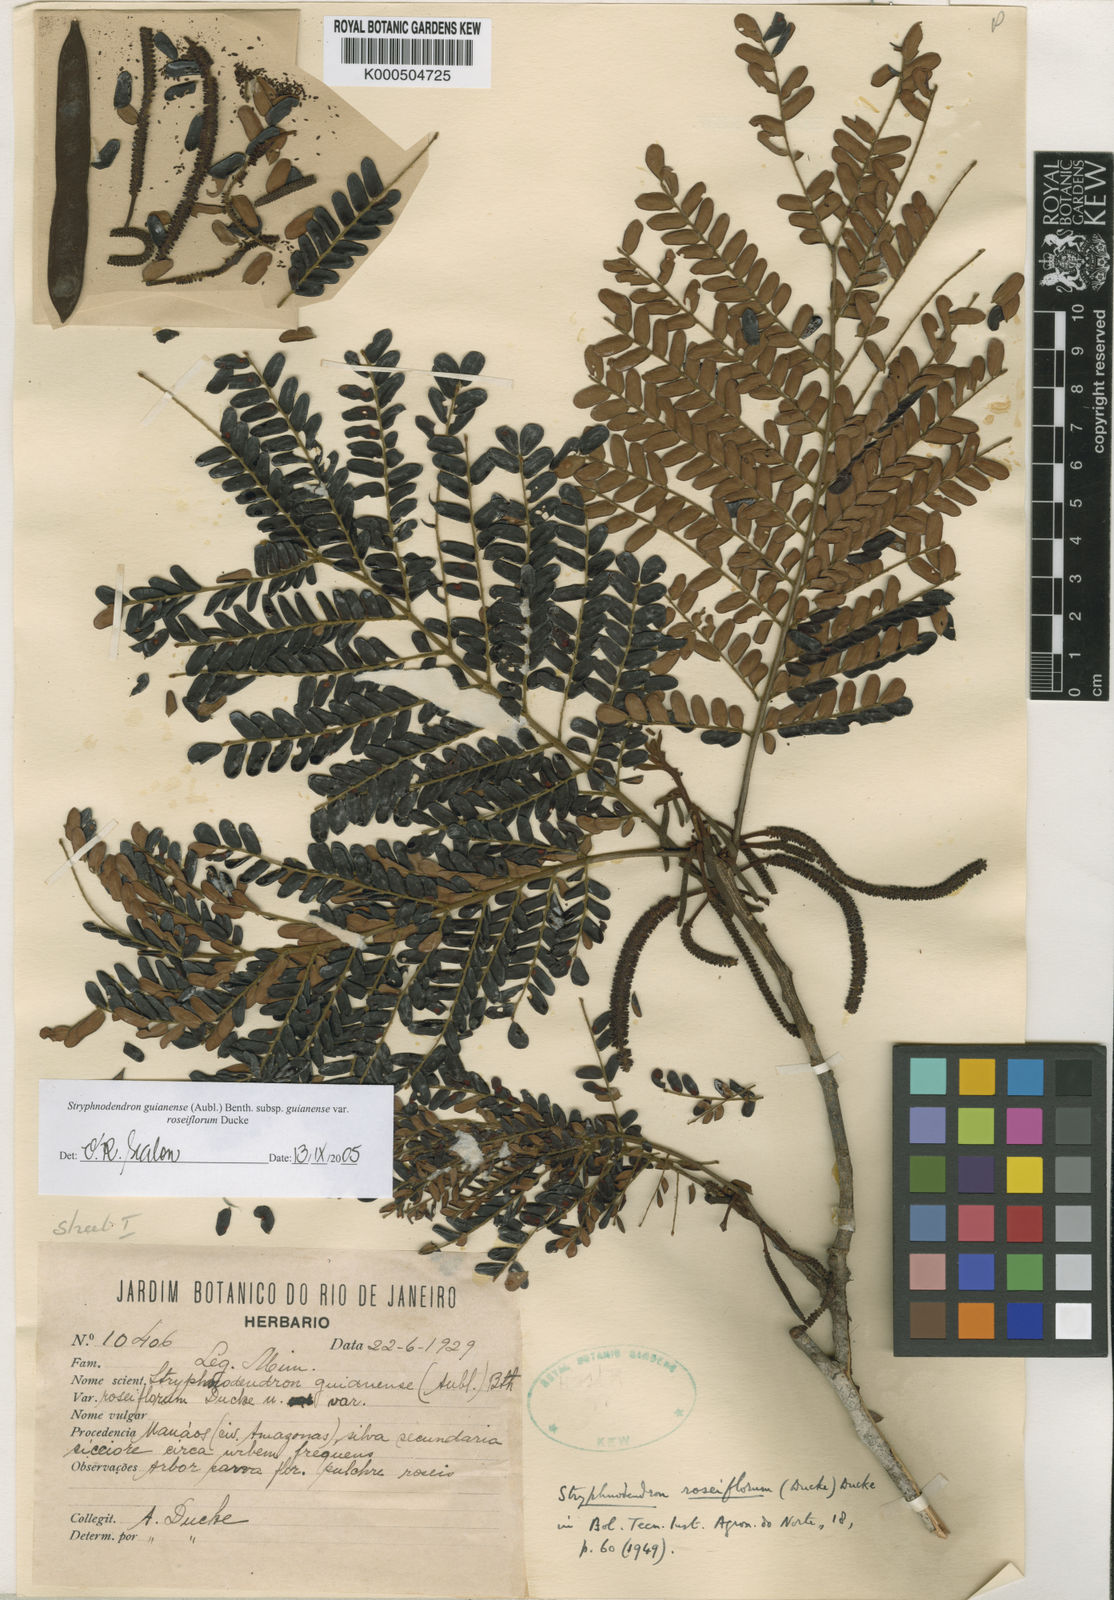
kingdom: Plantae
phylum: Tracheophyta
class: Magnoliopsida
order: Fabales
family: Fabaceae
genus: Stryphnodendron
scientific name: Stryphnodendron guianense
